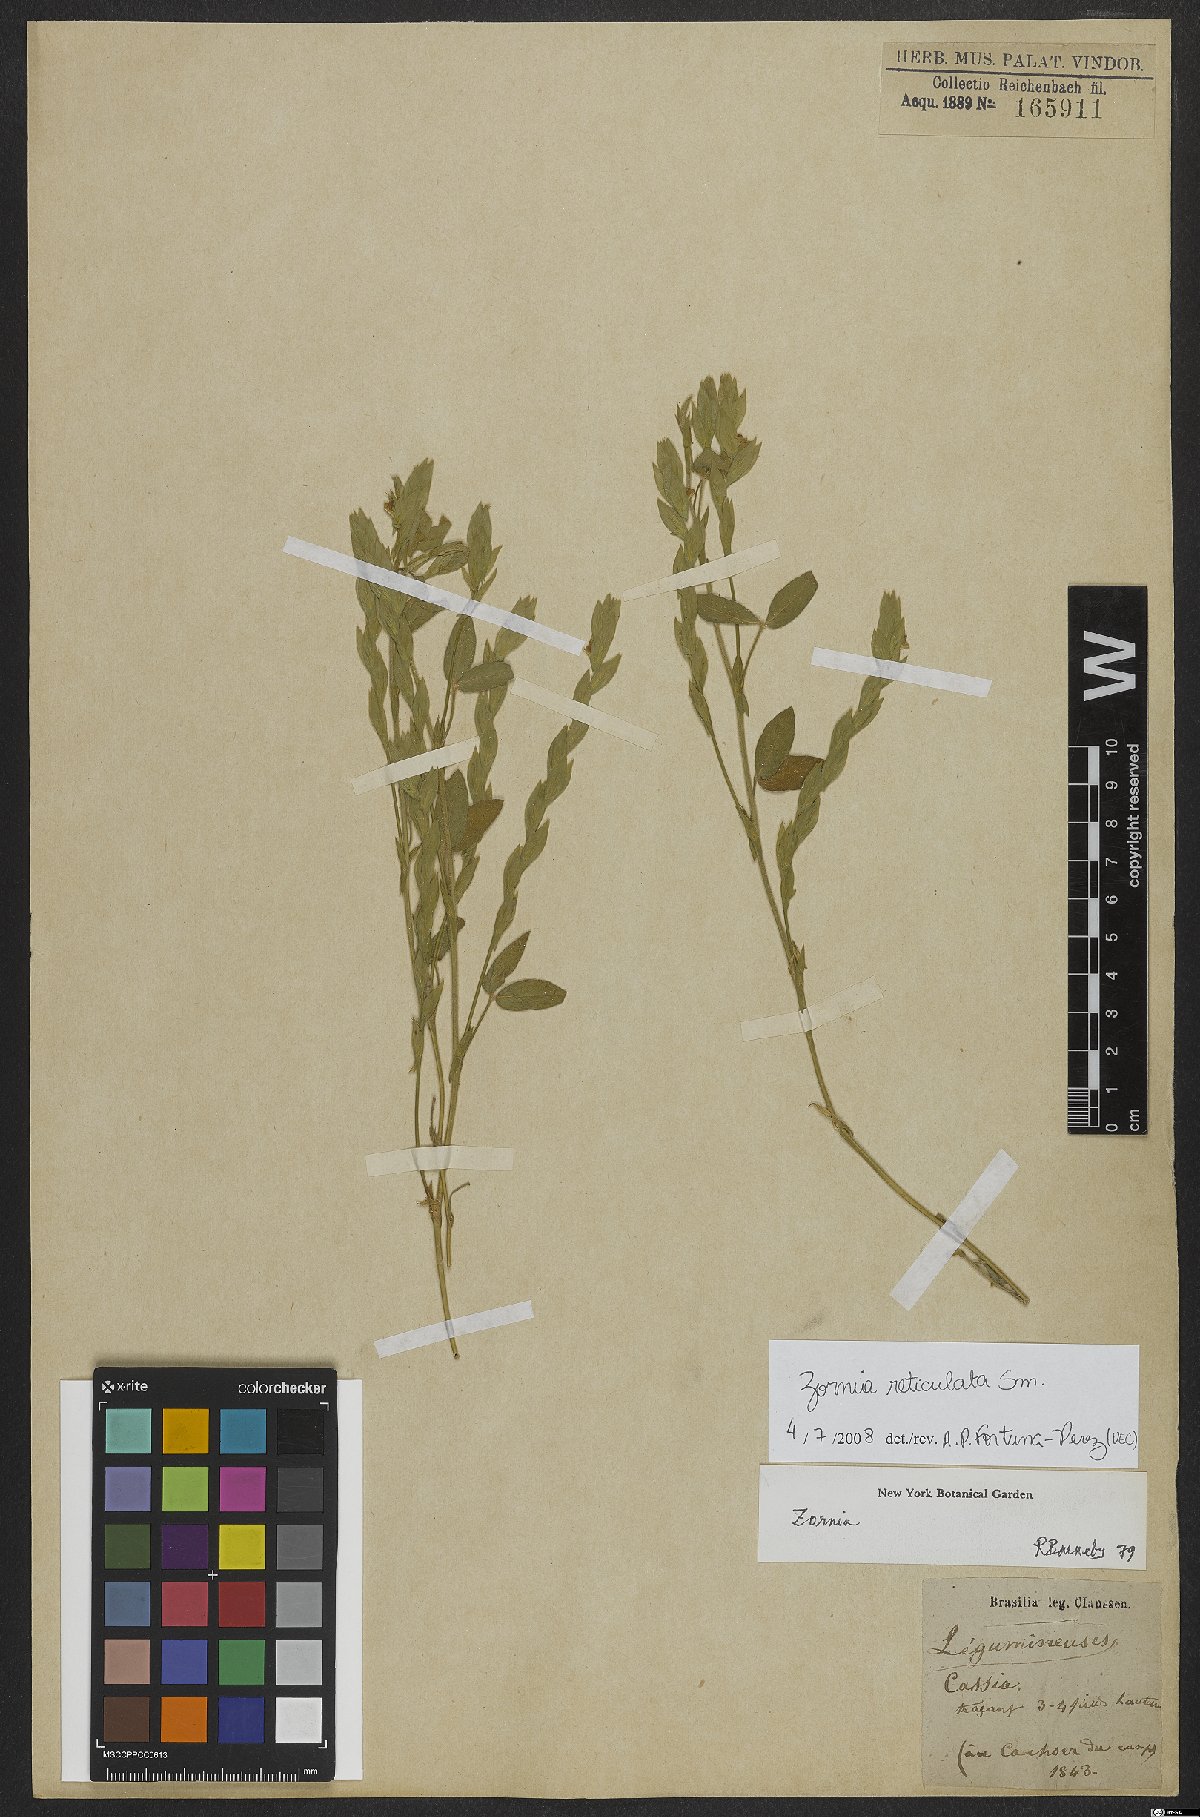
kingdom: Plantae
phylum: Tracheophyta
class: Magnoliopsida
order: Fabales
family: Fabaceae
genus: Zornia
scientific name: Zornia reticulata
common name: Reticulate viperina
